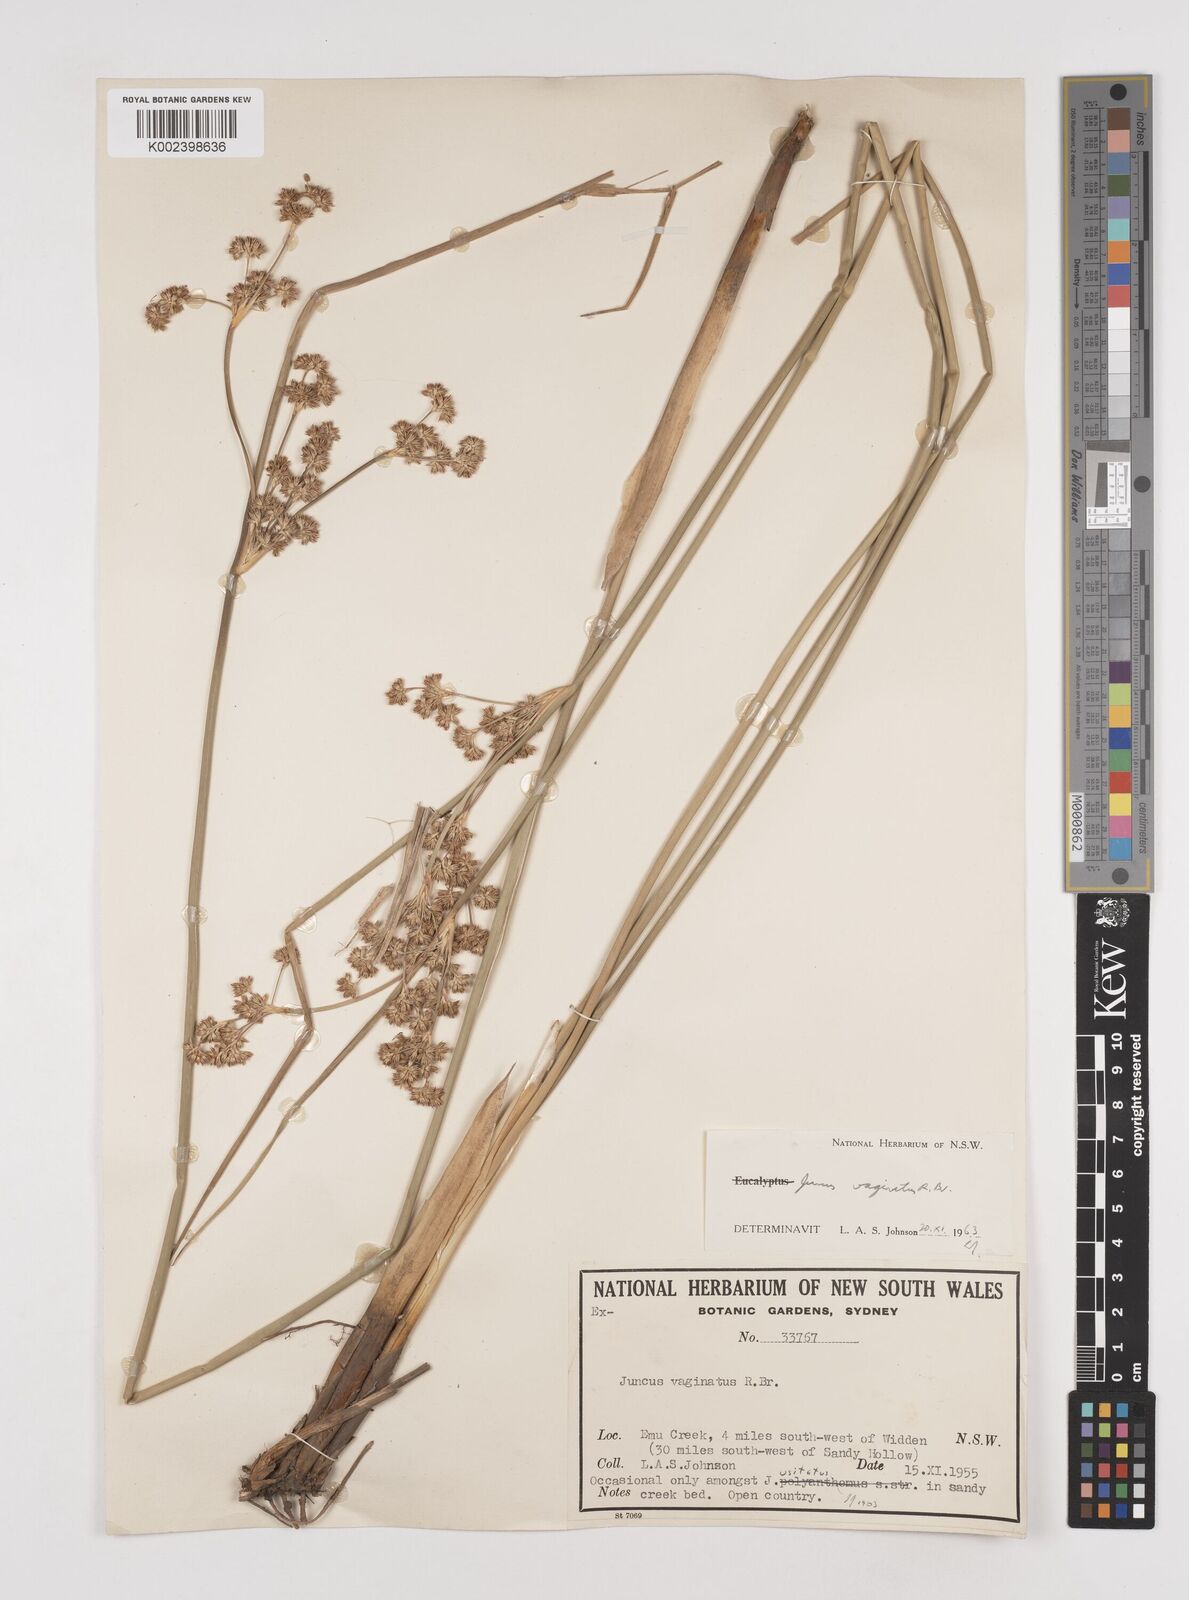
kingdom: Plantae
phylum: Tracheophyta
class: Liliopsida
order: Poales
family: Juncaceae
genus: Juncus
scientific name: Juncus vaginatus
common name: Clustered rush
